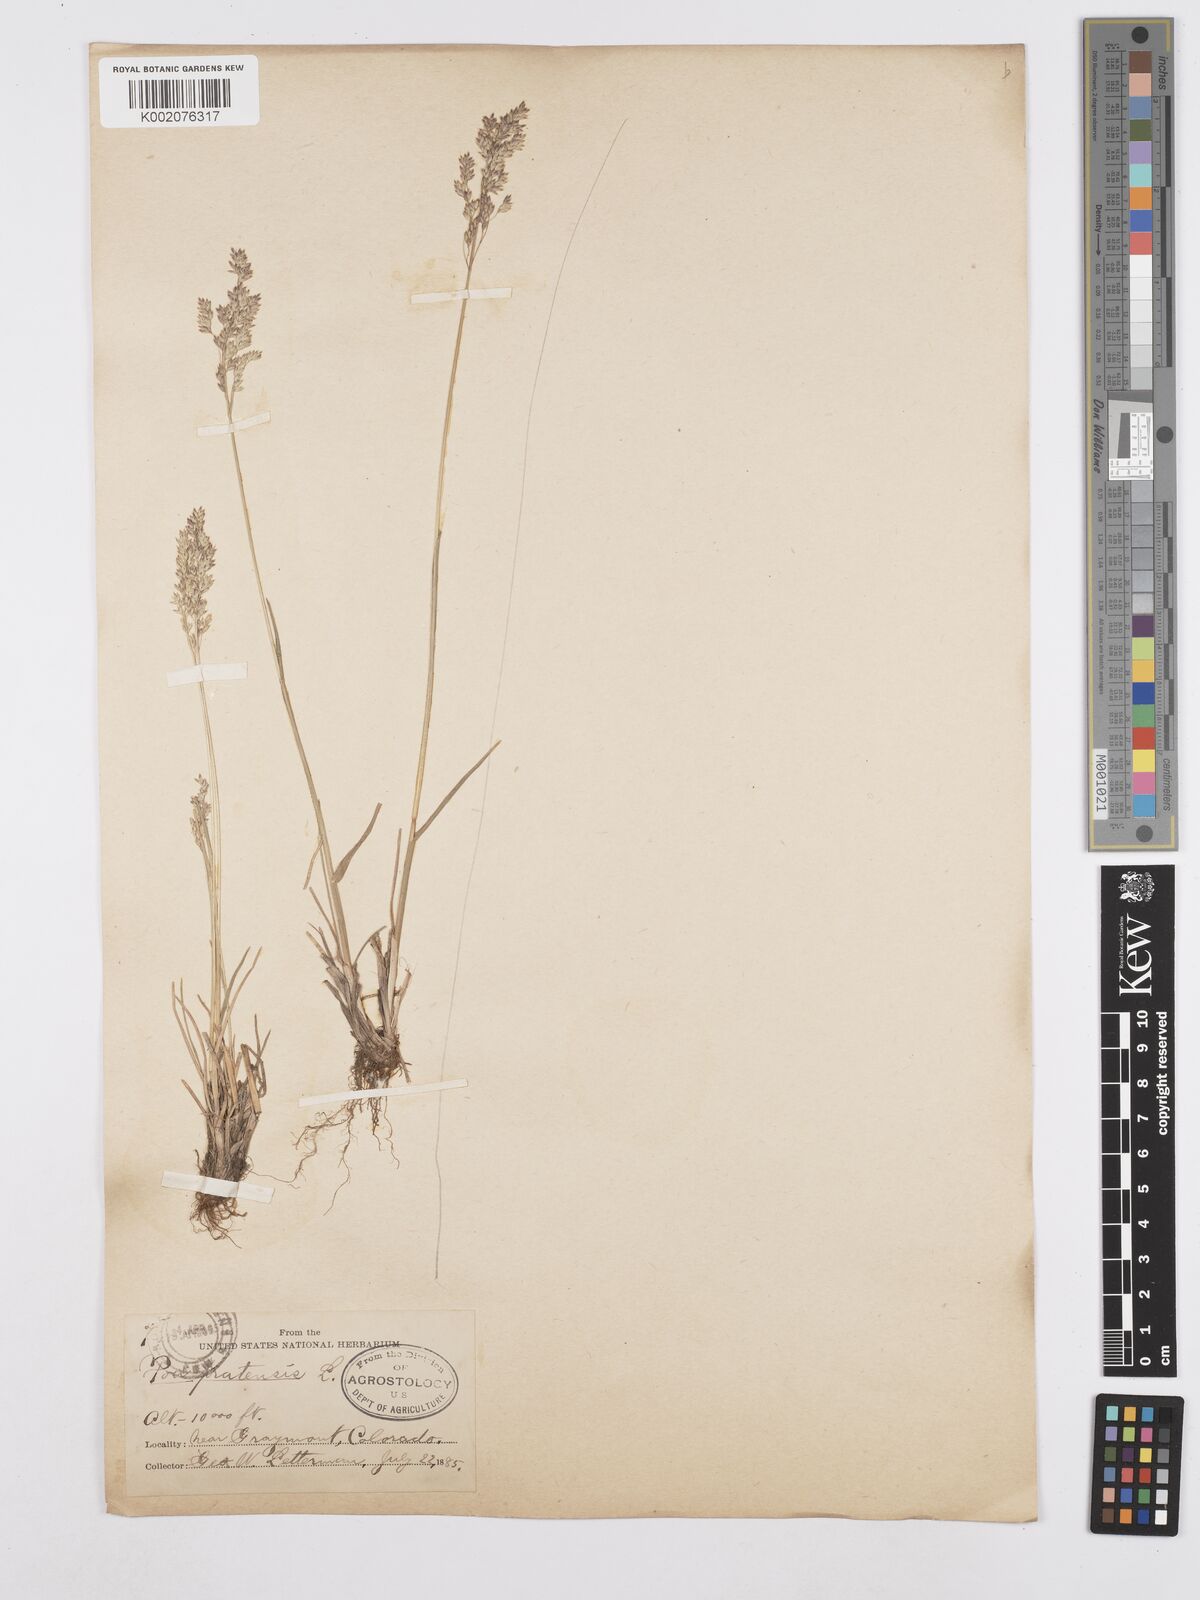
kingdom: Plantae
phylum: Tracheophyta
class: Liliopsida
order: Poales
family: Poaceae
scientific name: Poaceae
